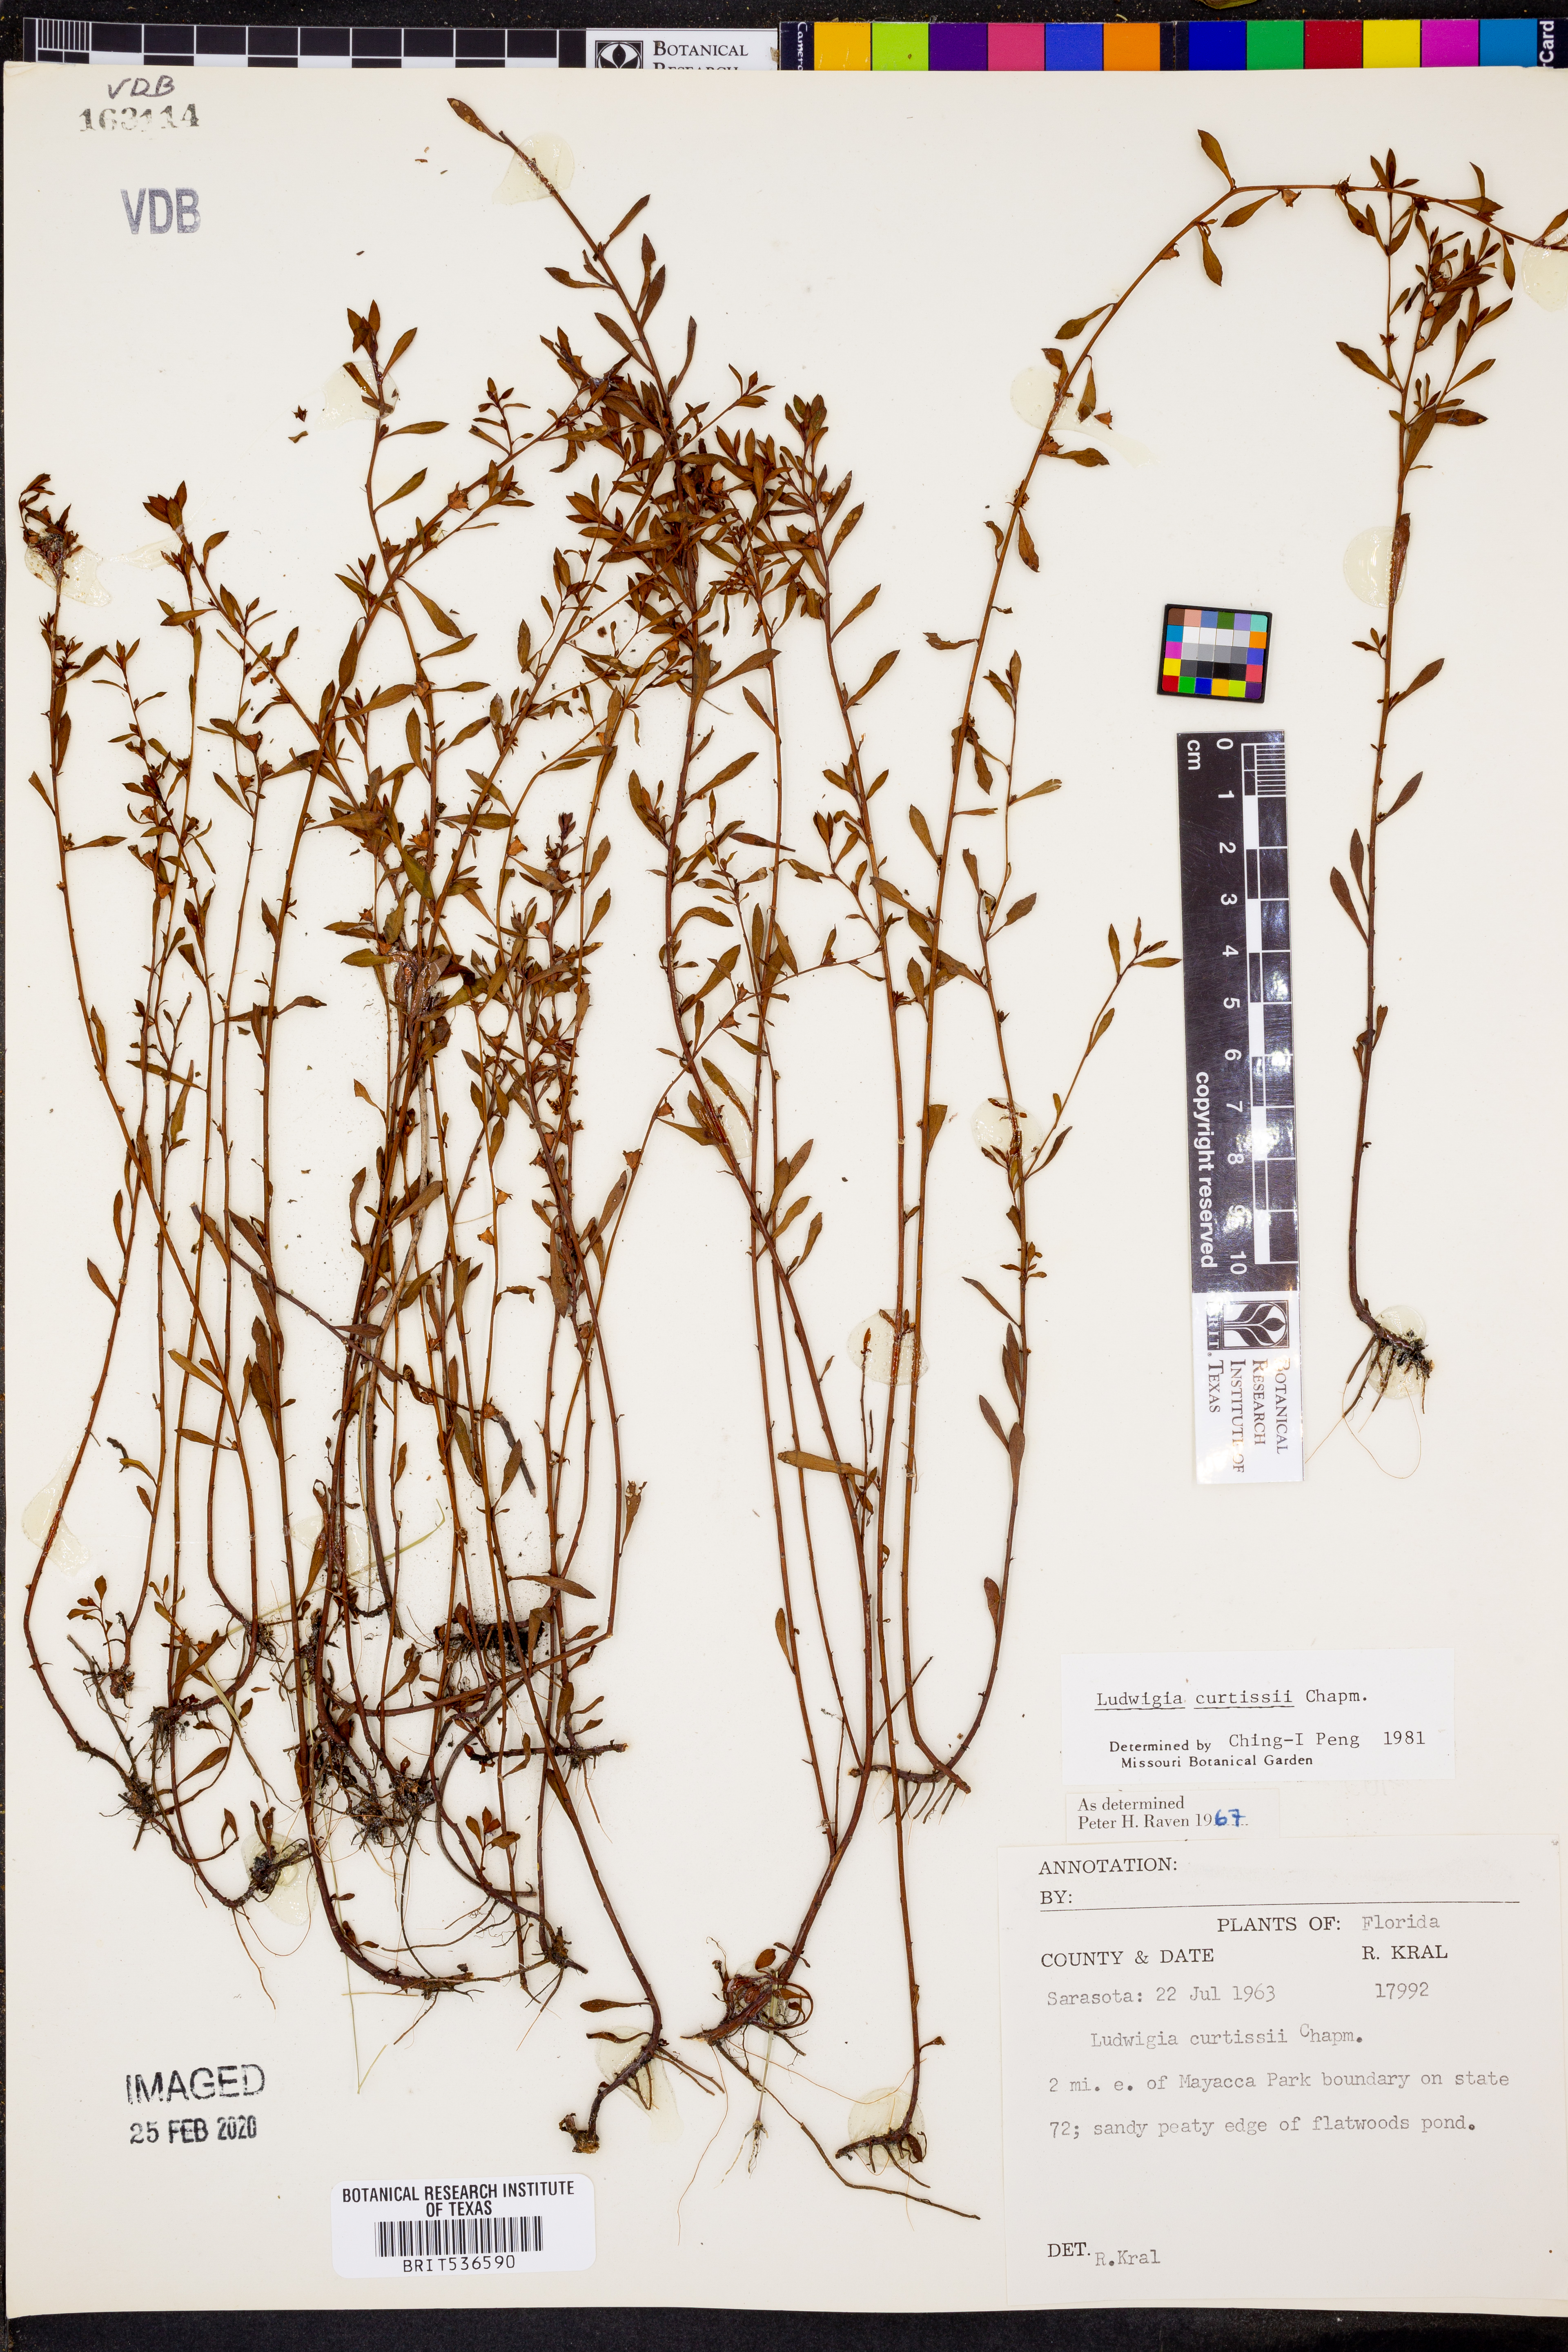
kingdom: Plantae
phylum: Tracheophyta
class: Magnoliopsida
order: Myrtales
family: Onagraceae
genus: Ludwigia
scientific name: Ludwigia curtissii
